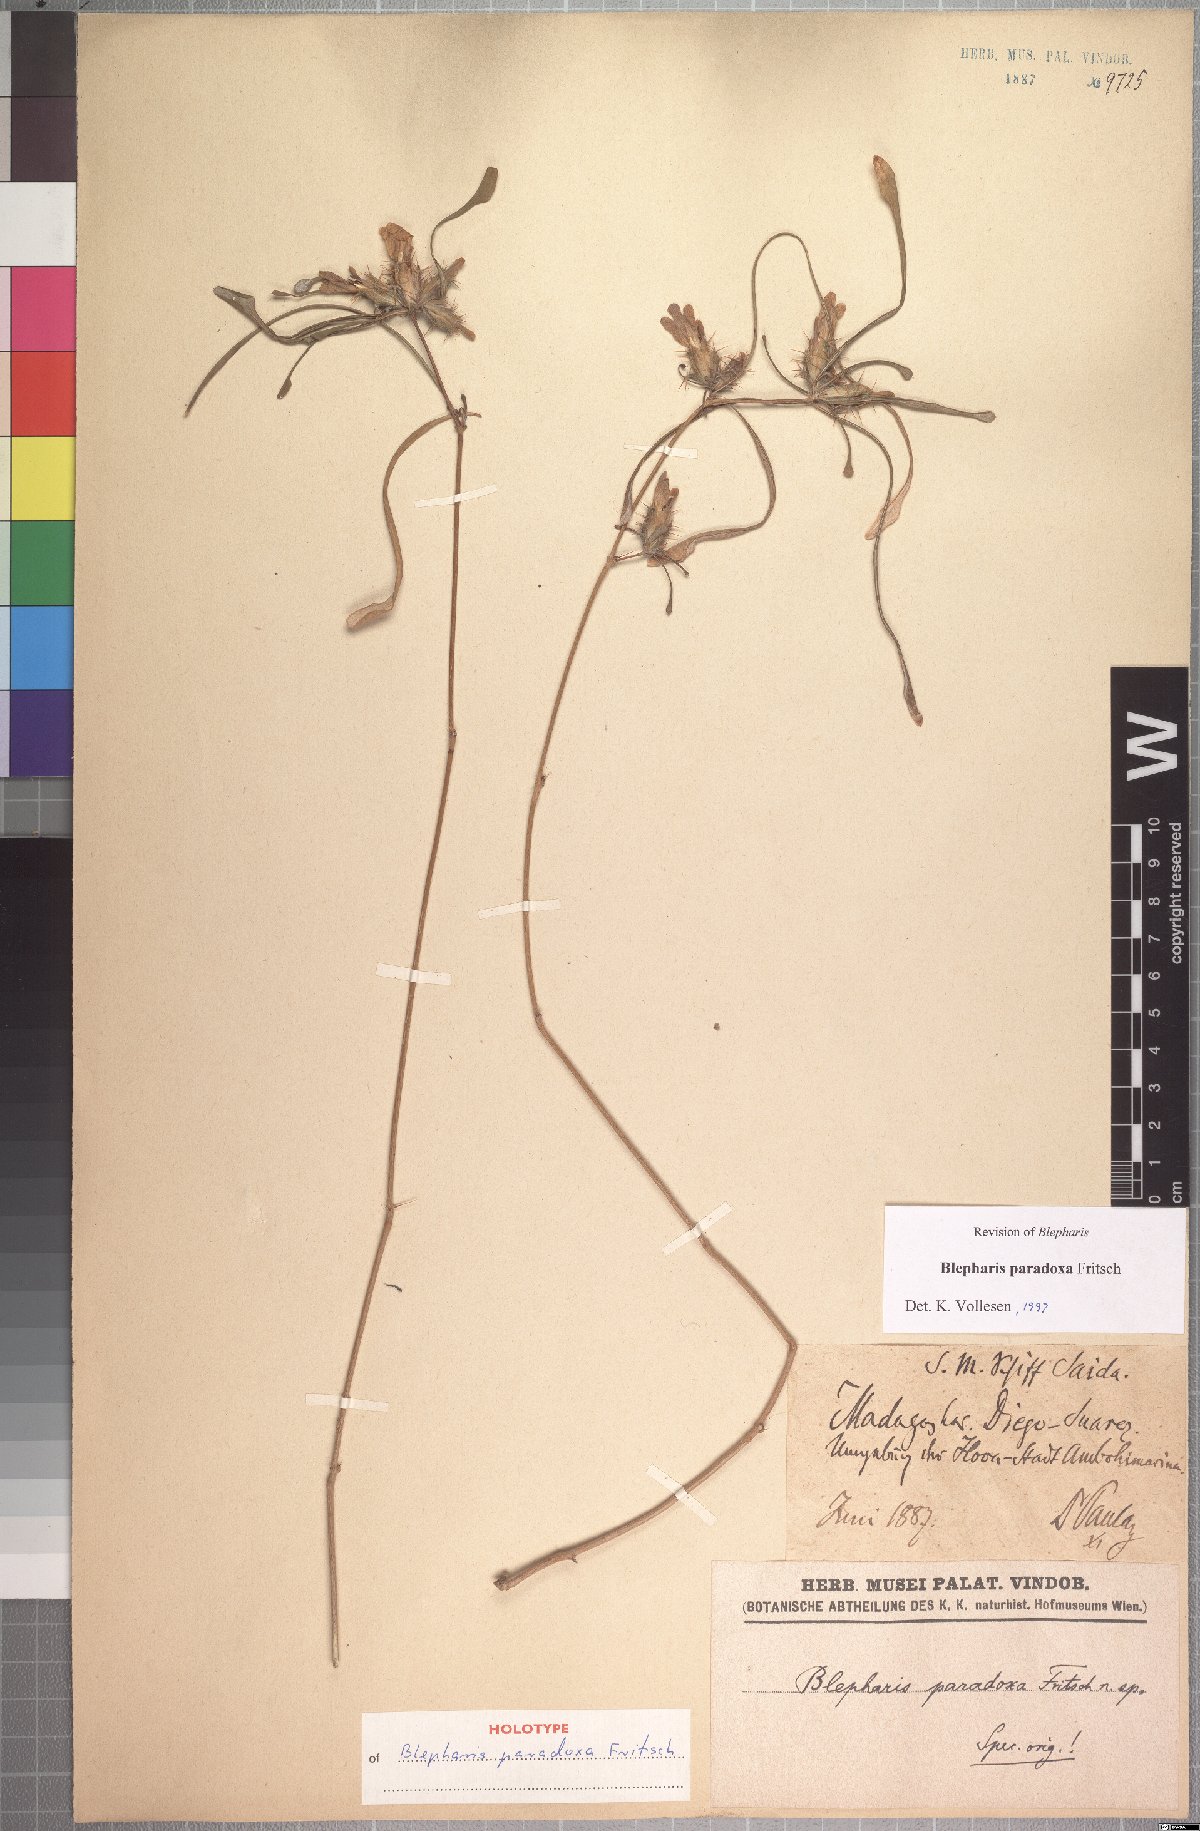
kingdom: Plantae
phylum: Tracheophyta
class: Magnoliopsida
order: Lamiales
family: Acanthaceae
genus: Blepharis
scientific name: Blepharis paradoxa
